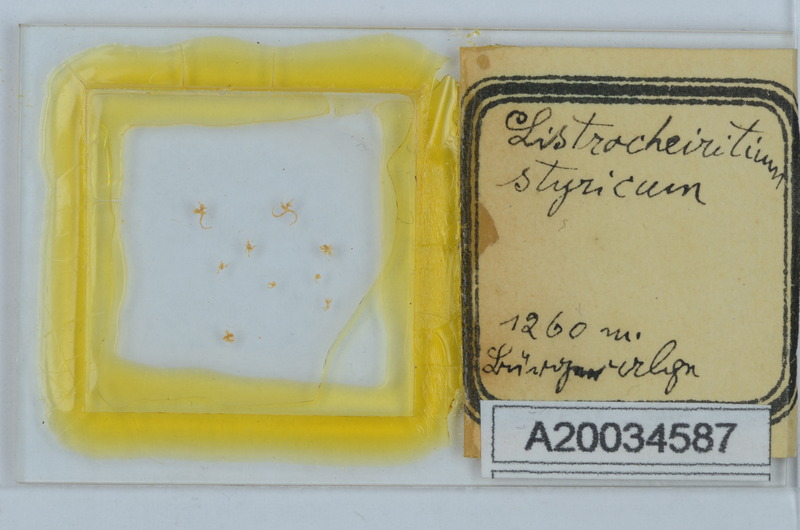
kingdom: Animalia
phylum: Arthropoda
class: Diplopoda
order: Chordeumatida
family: Craspedosomatidae
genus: Listrocheiritium
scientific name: Listrocheiritium styricum
